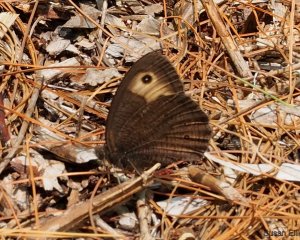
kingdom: Animalia
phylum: Arthropoda
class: Insecta
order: Lepidoptera
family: Nymphalidae
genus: Cercyonis
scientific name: Cercyonis pegala
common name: Common Wood-Nymph
